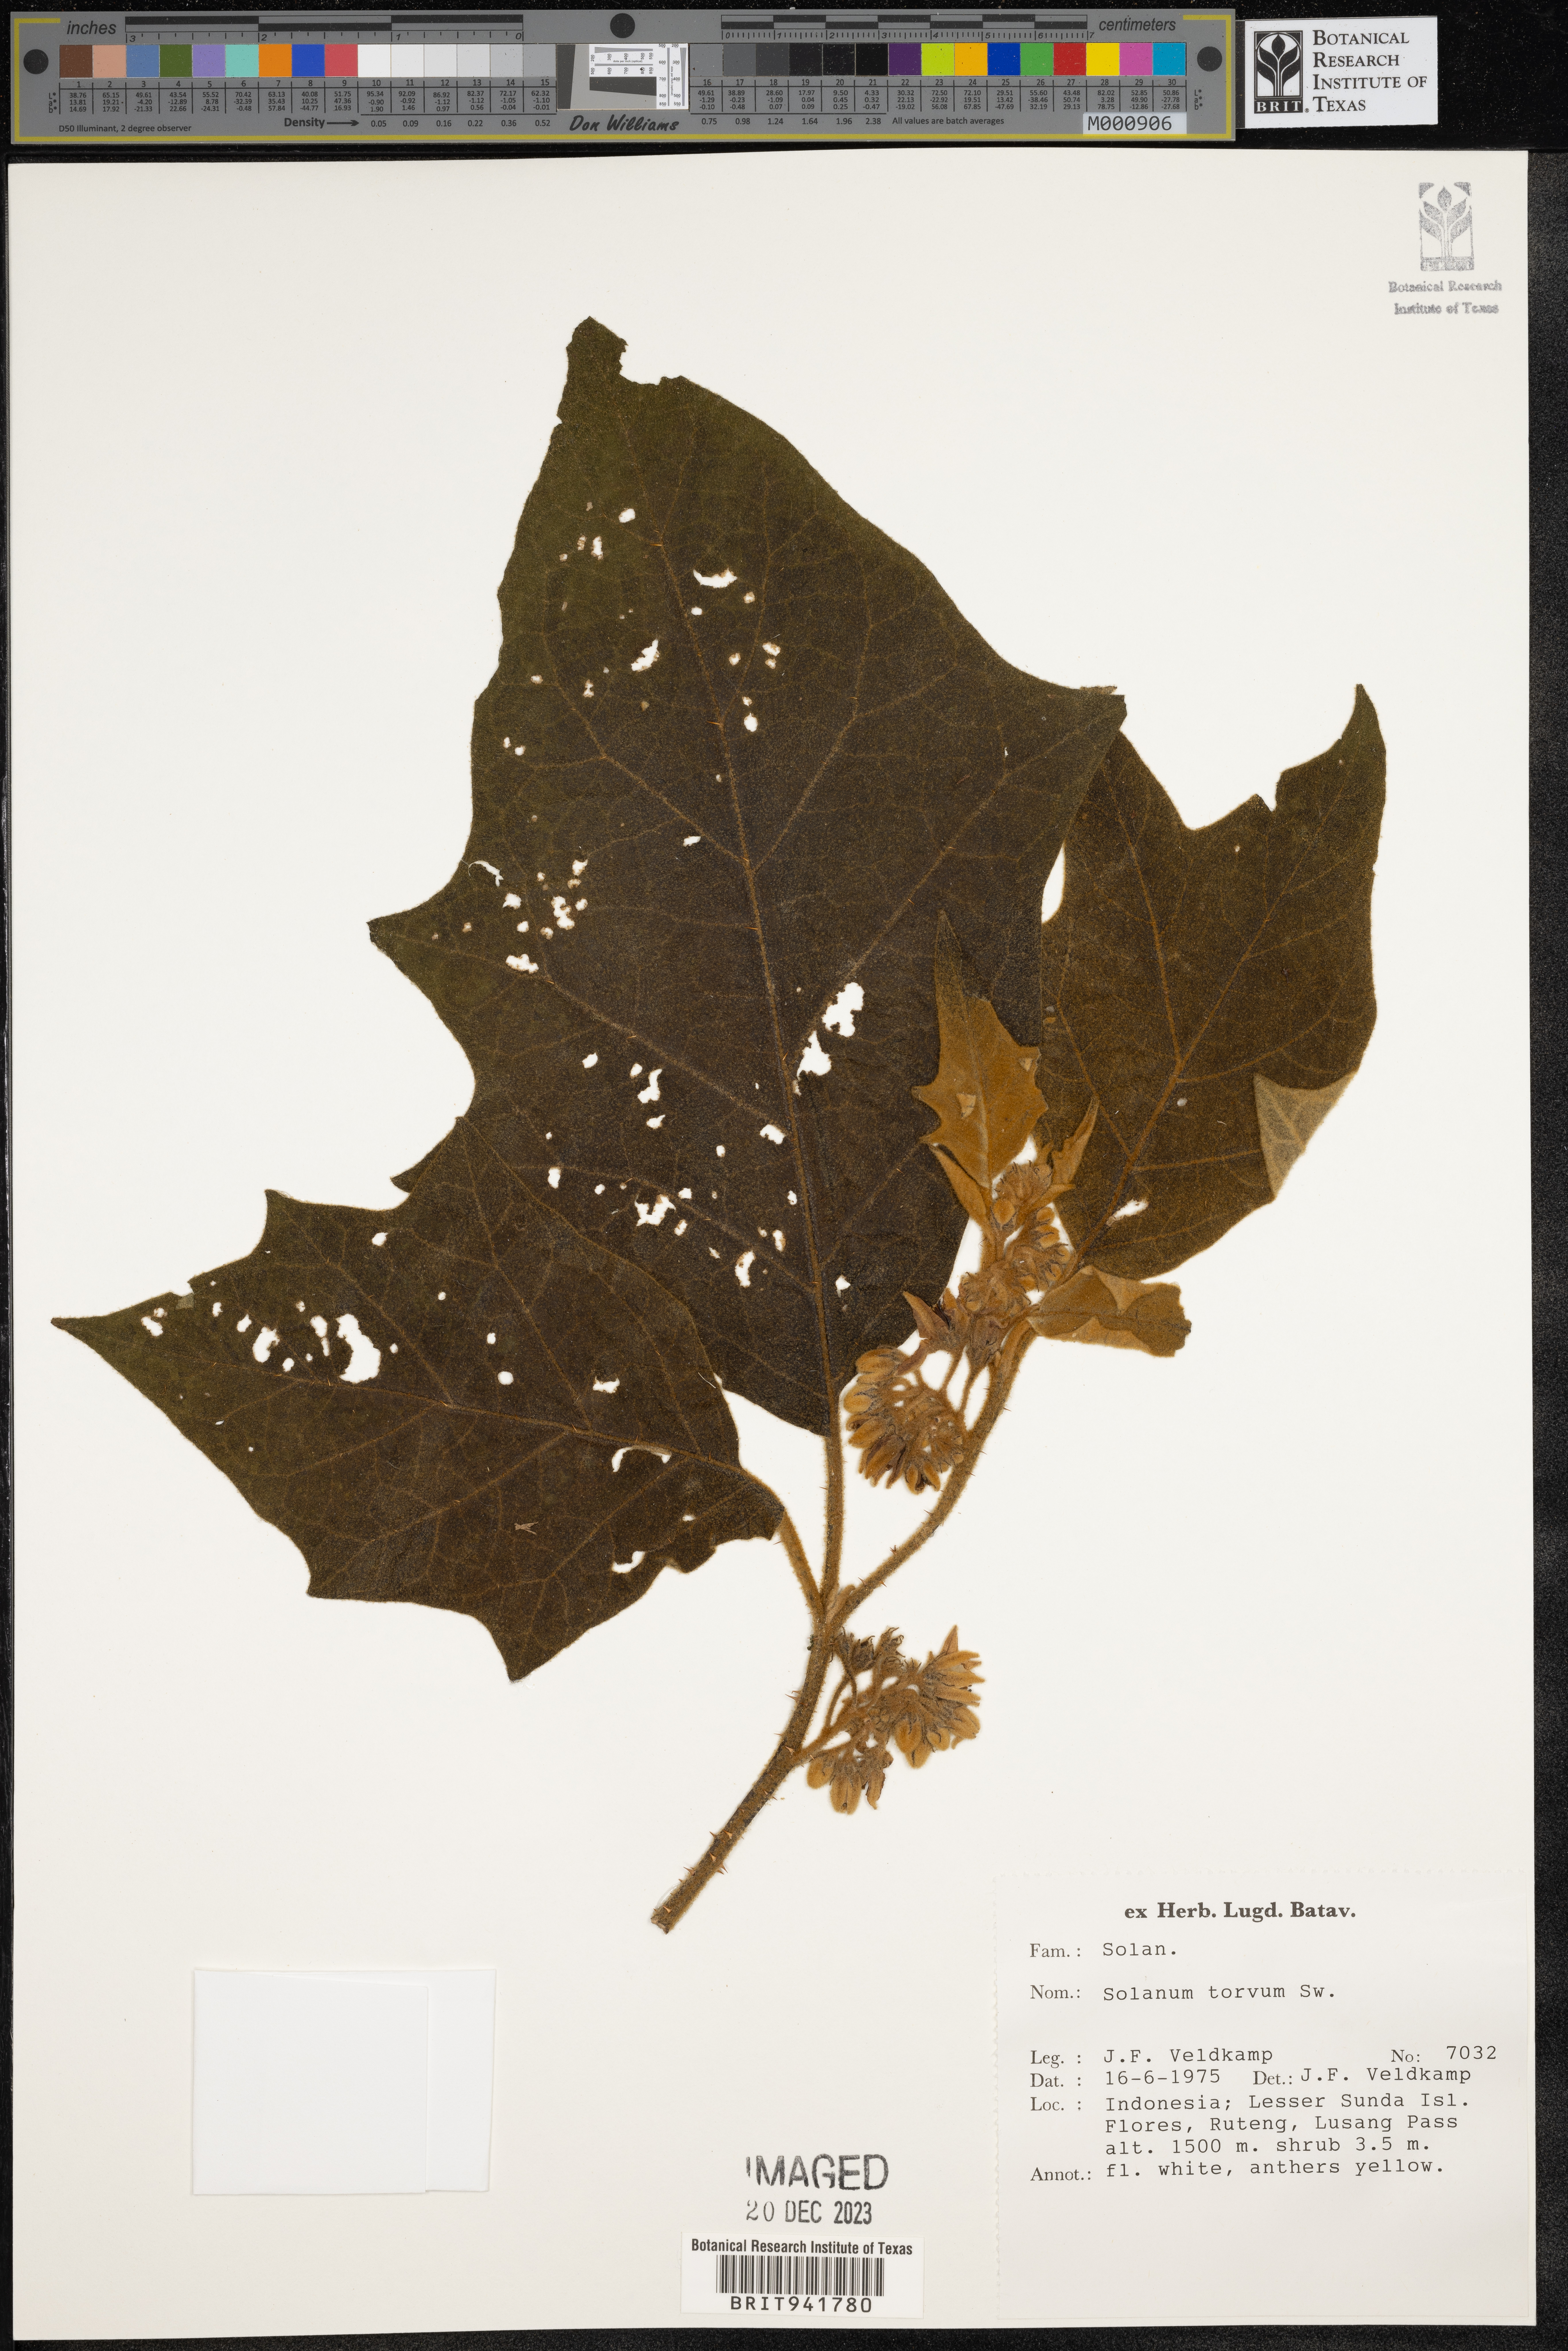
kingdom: Plantae
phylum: Tracheophyta
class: Magnoliopsida
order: Solanales
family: Solanaceae
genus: Solanum
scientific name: Solanum
